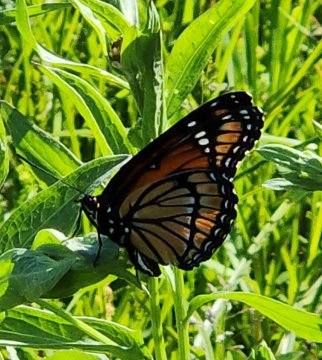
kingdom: Animalia
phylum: Arthropoda
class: Insecta
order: Lepidoptera
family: Nymphalidae
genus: Limenitis
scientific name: Limenitis archippus
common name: Viceroy
